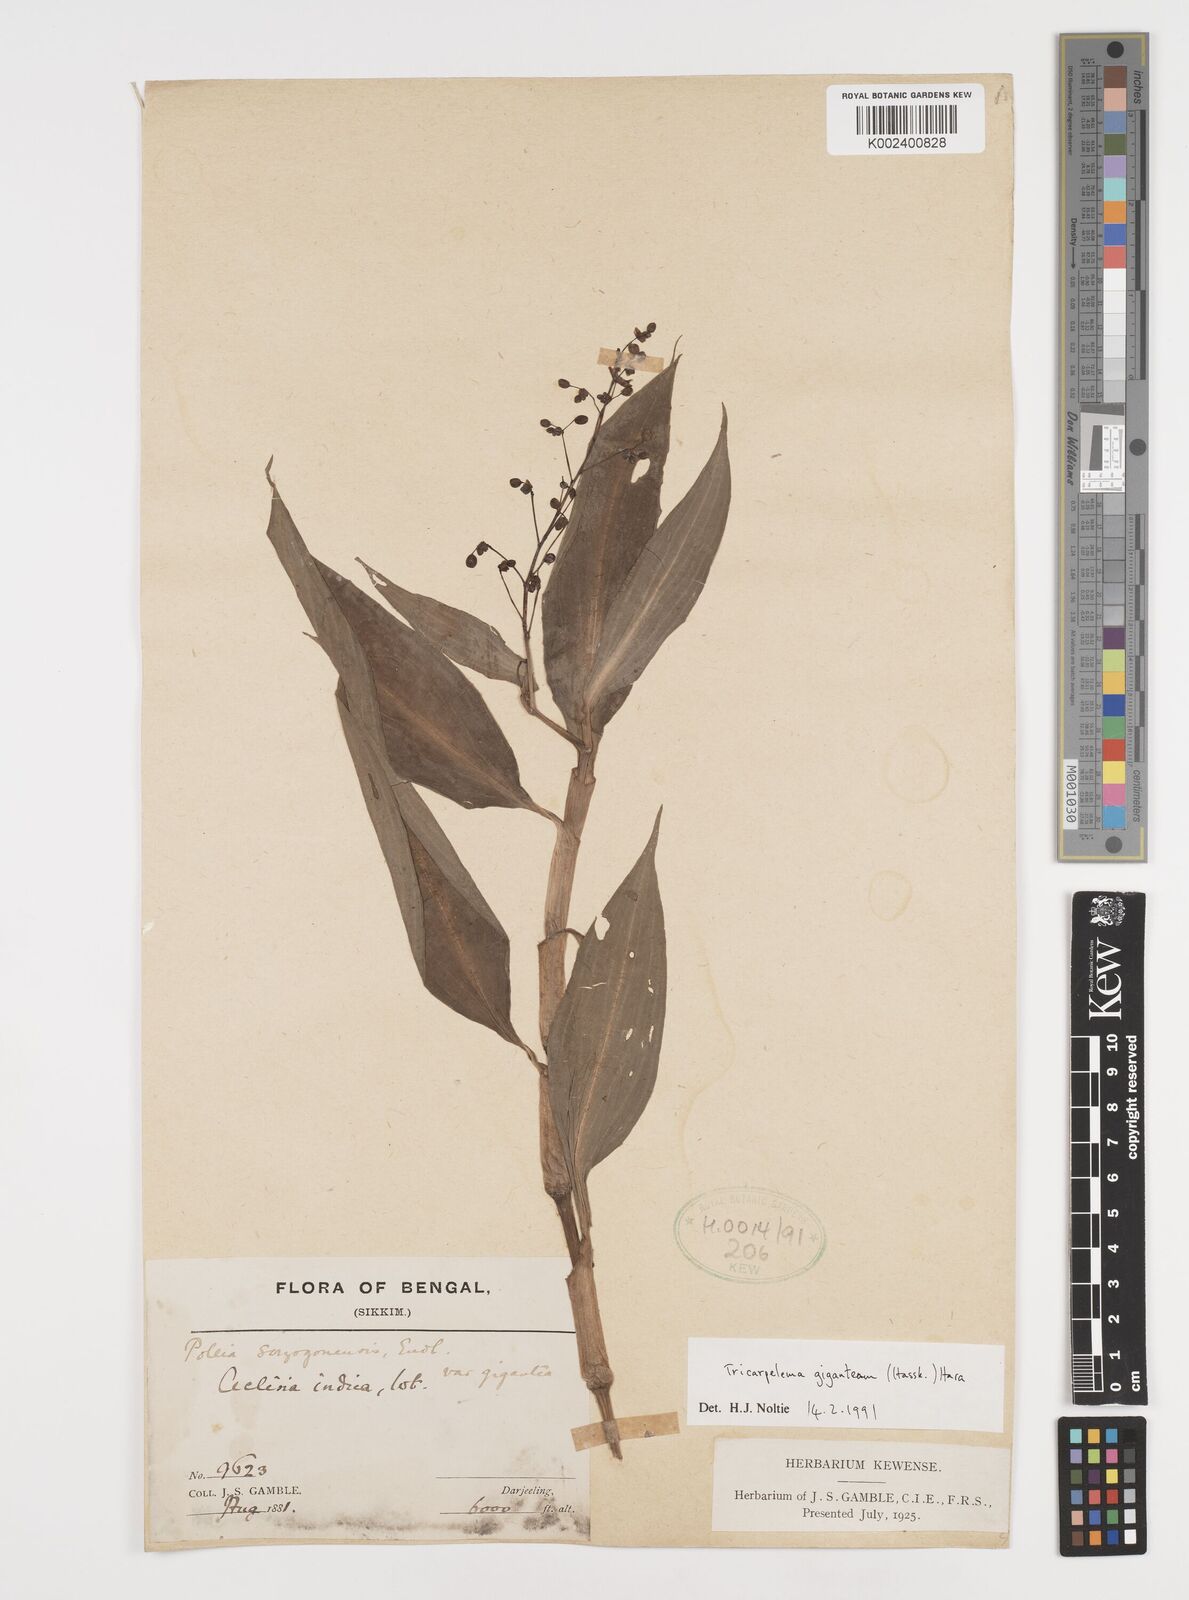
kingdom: Plantae
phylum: Tracheophyta
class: Liliopsida
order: Commelinales
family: Commelinaceae
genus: Tricarpelema
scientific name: Tricarpelema giganteum
